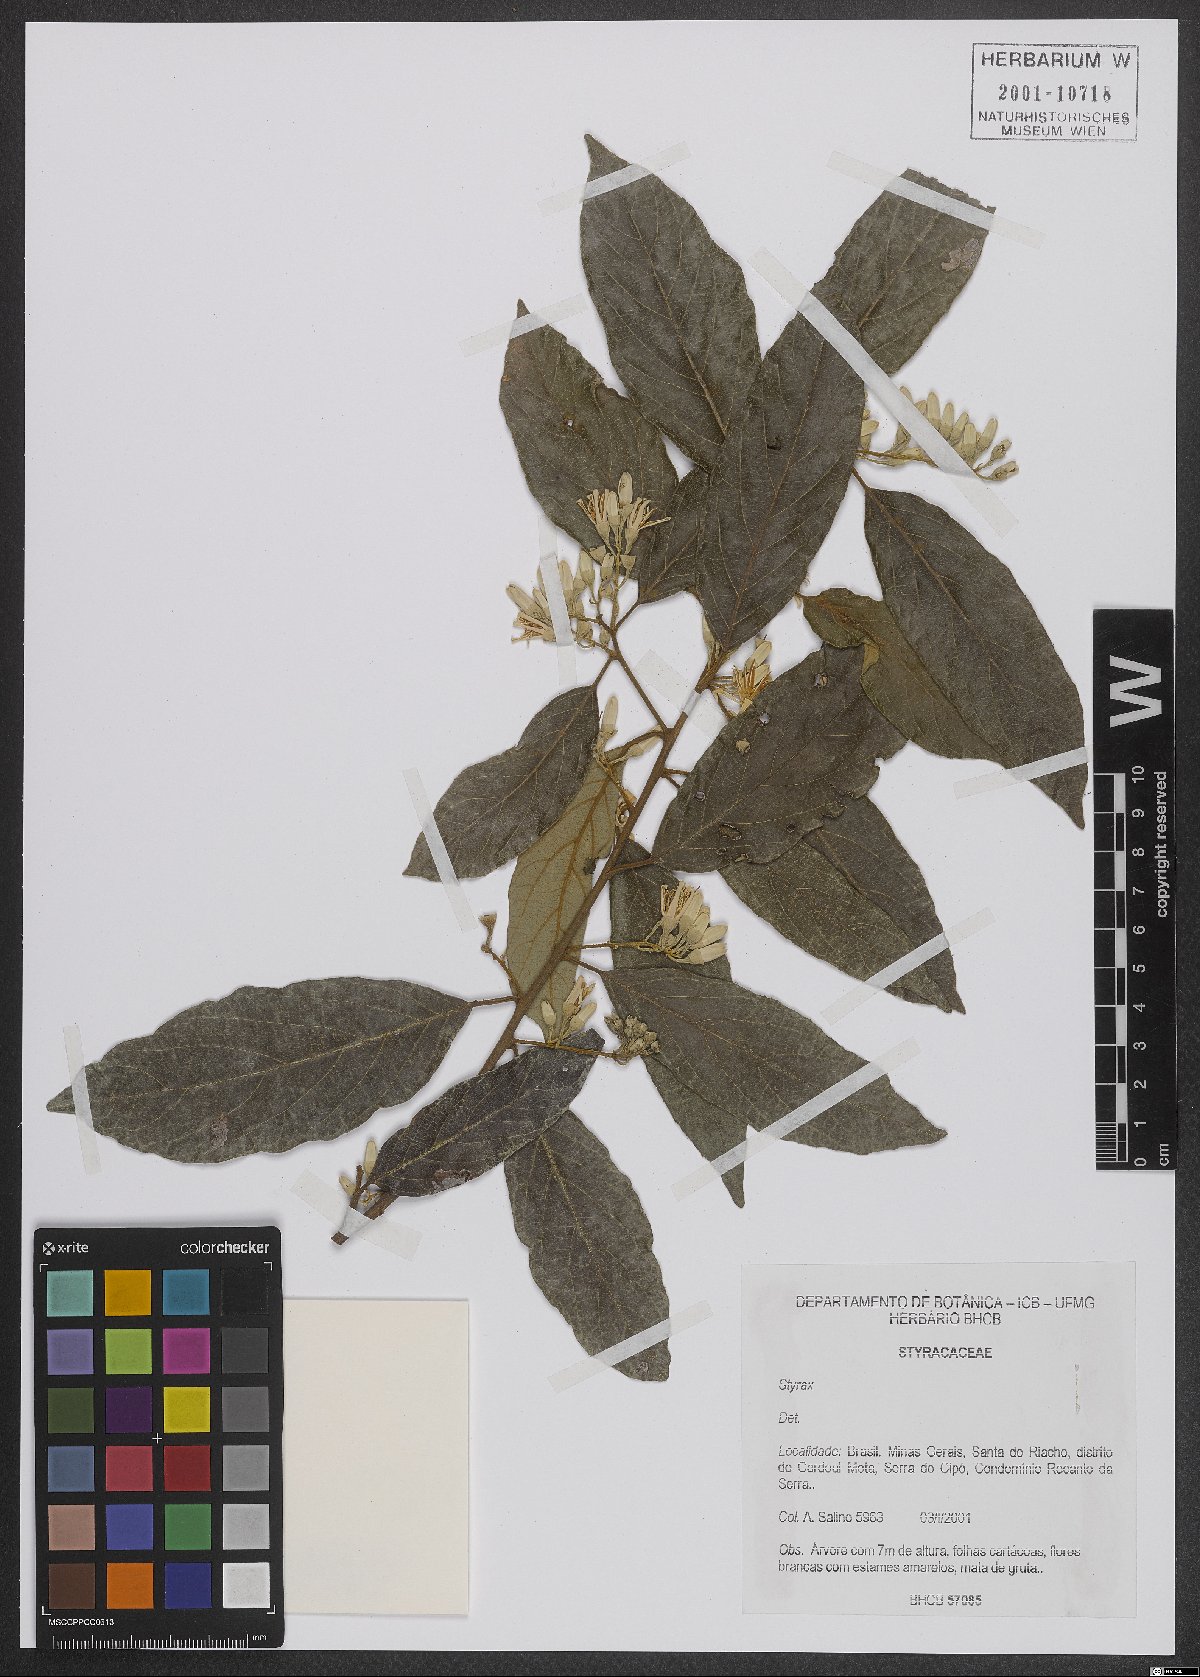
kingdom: Plantae
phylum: Tracheophyta
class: Magnoliopsida
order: Ericales
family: Styracaceae
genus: Styrax
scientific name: Styrax
